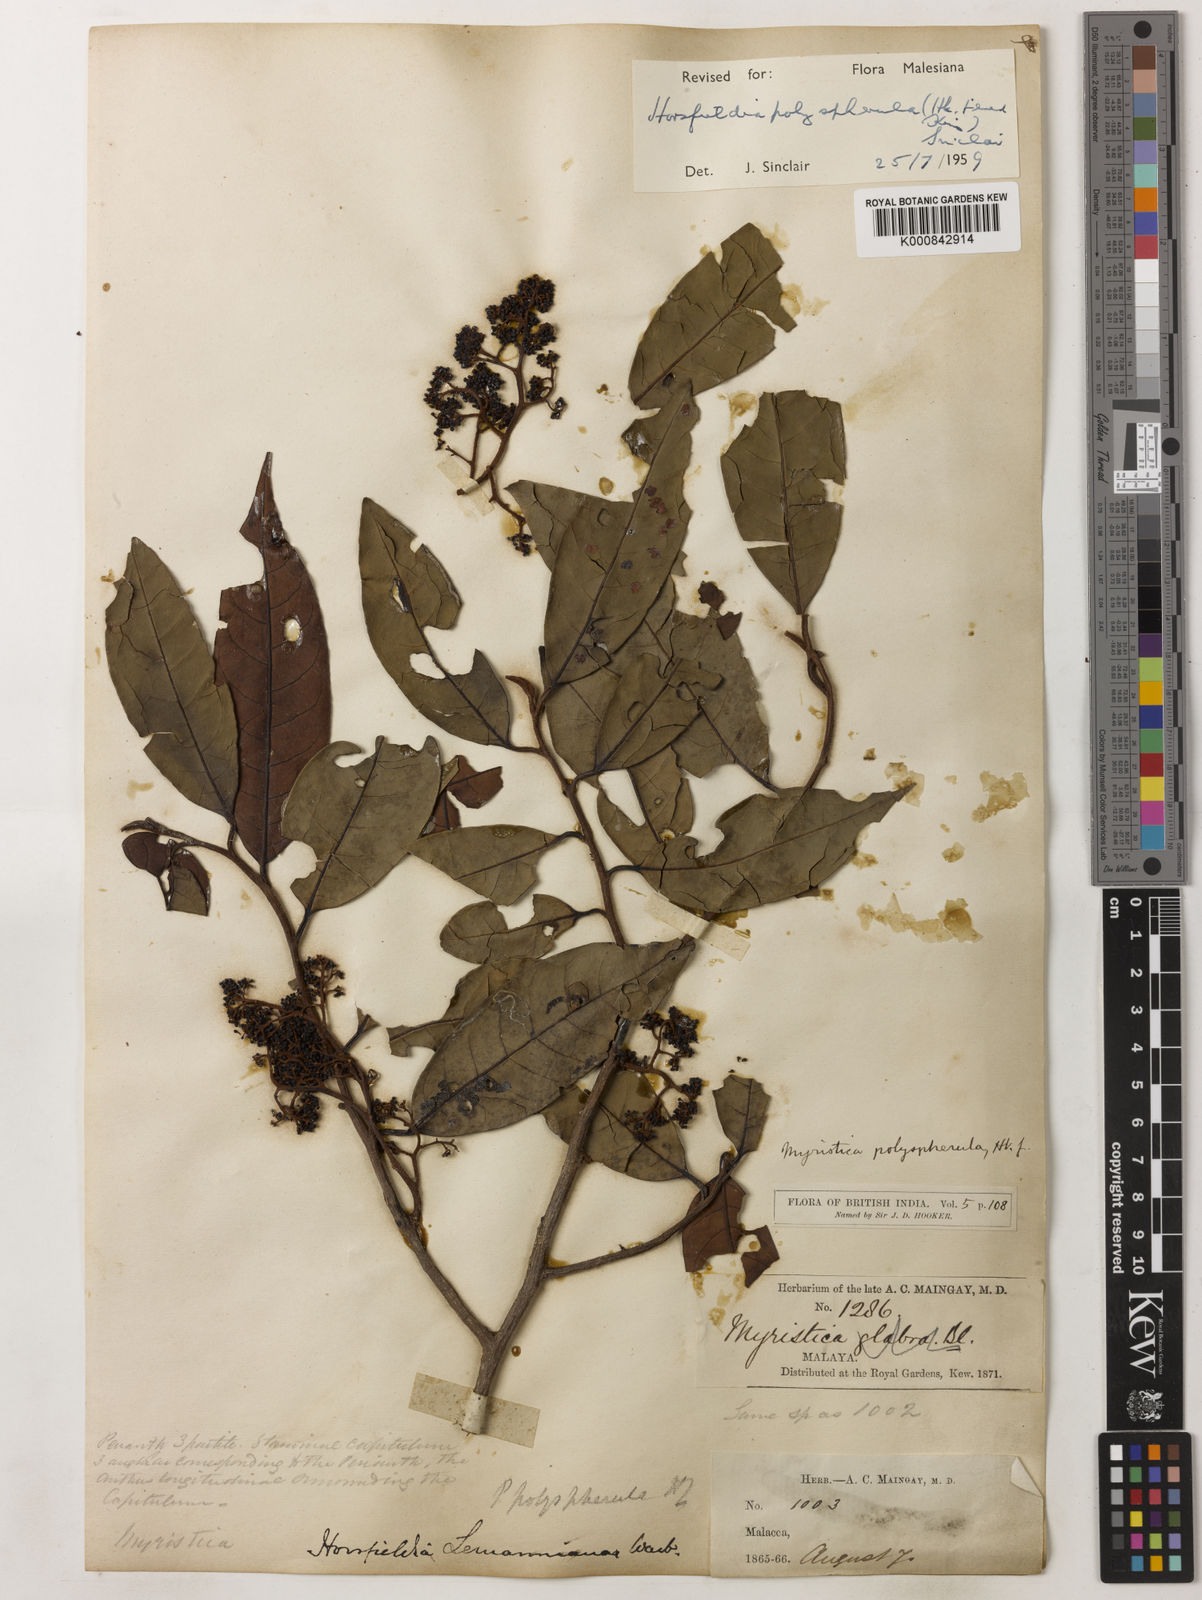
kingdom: Plantae
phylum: Tracheophyta
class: Magnoliopsida
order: Magnoliales
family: Myristicaceae
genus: Horsfieldia
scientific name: Horsfieldia
